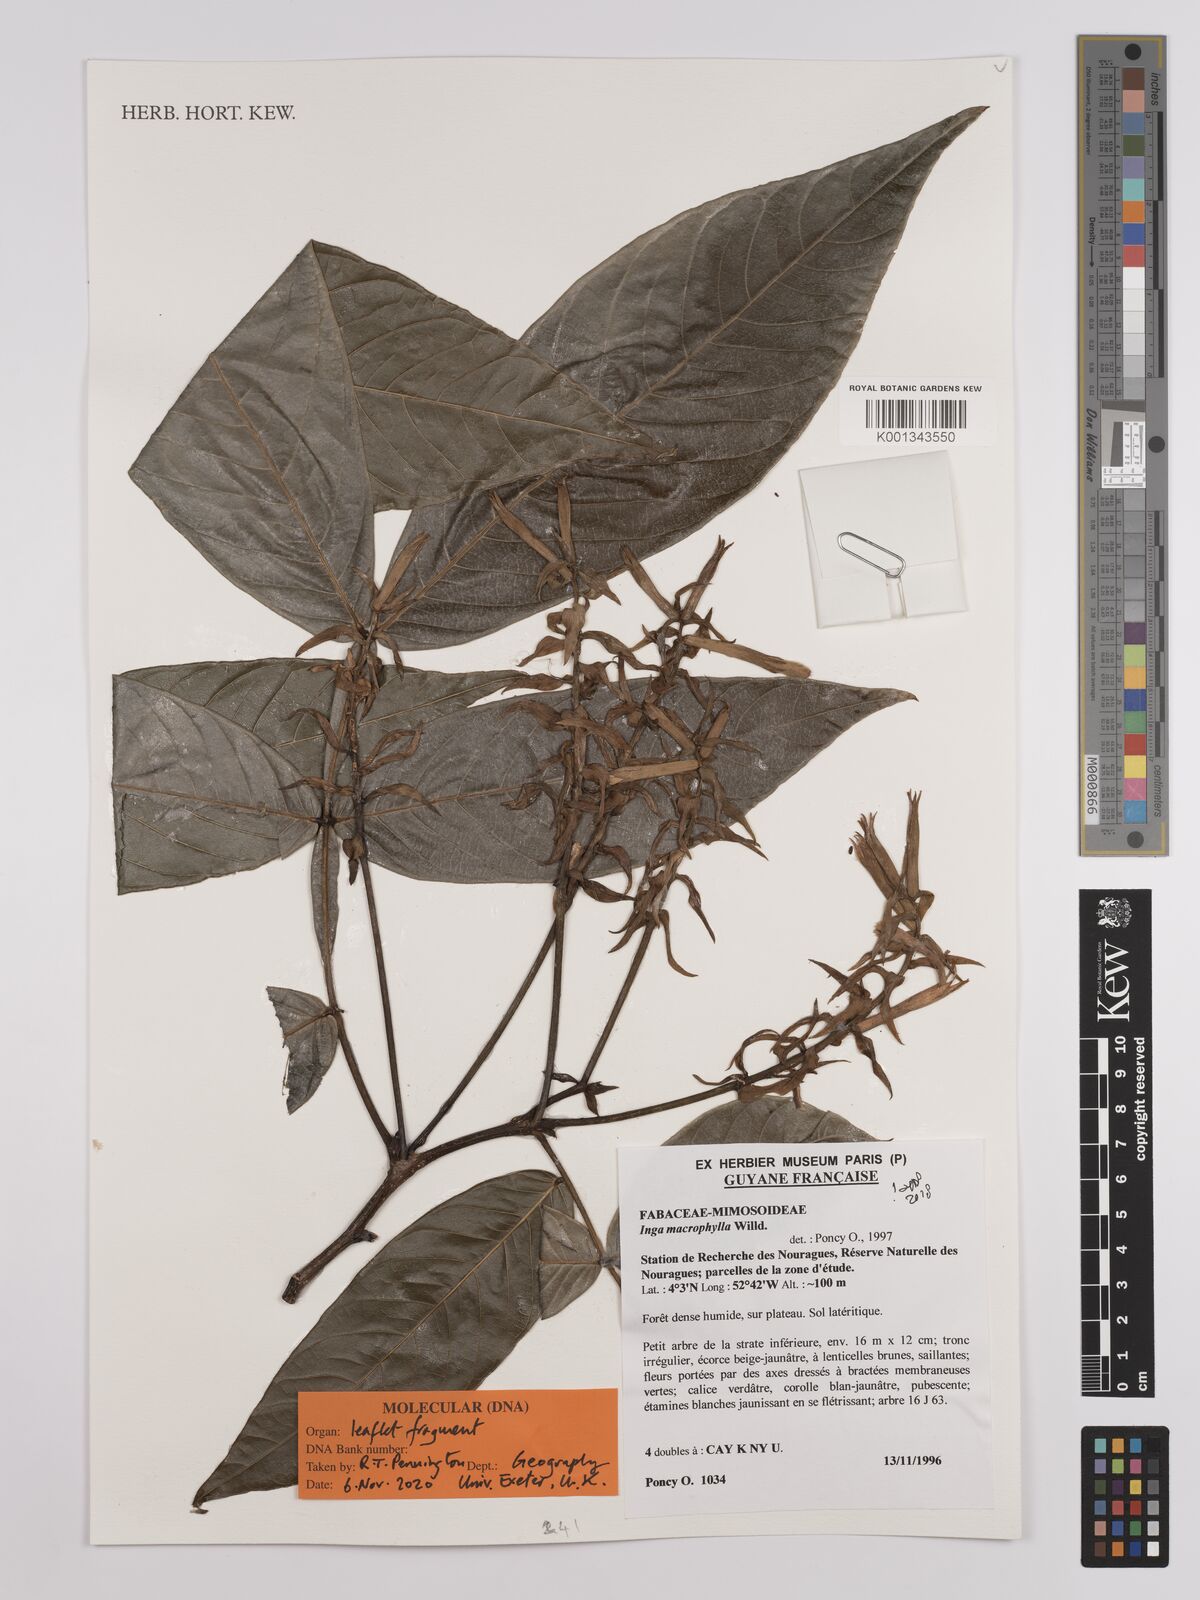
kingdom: Plantae
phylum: Tracheophyta
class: Magnoliopsida
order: Fabales
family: Fabaceae
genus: Inga
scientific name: Inga
